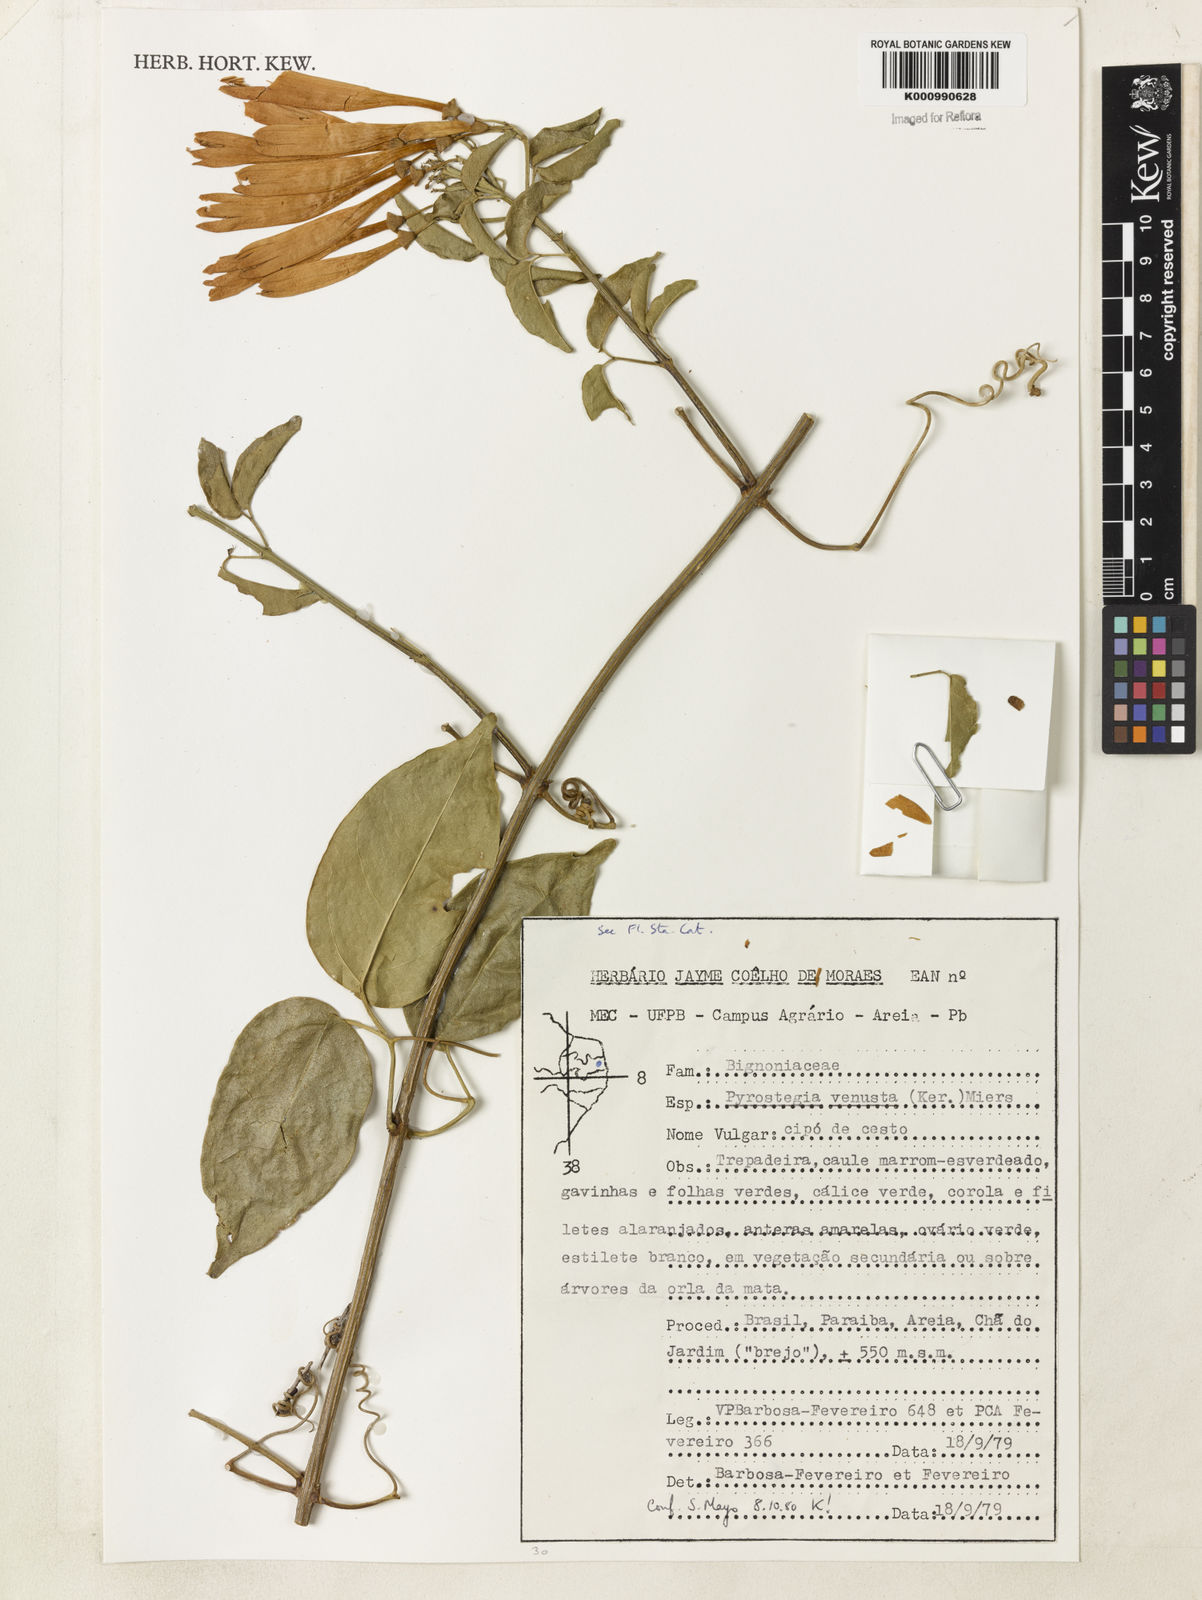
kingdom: Plantae
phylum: Tracheophyta
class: Magnoliopsida
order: Lamiales
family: Bignoniaceae
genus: Pyrostegia
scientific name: Pyrostegia venusta
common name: Flamevine
